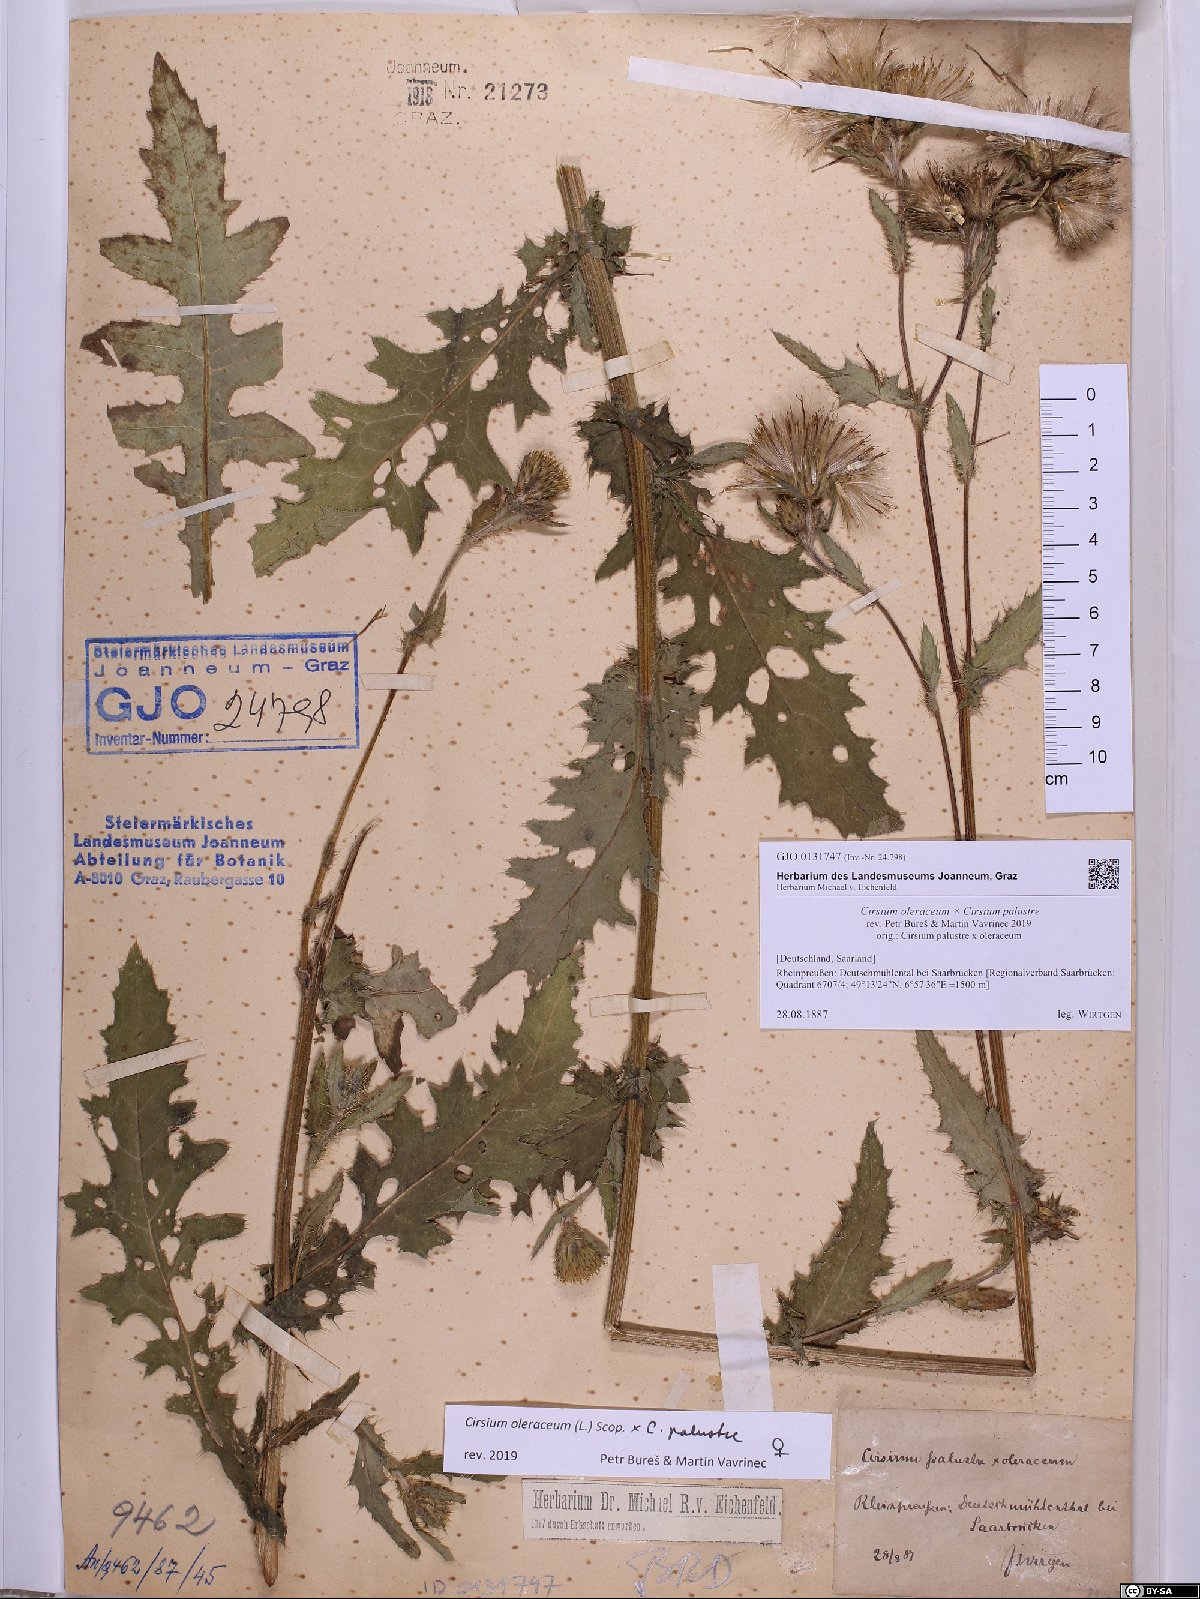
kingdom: Plantae
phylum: Tracheophyta
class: Magnoliopsida
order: Asterales
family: Asteraceae
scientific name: Asteraceae
